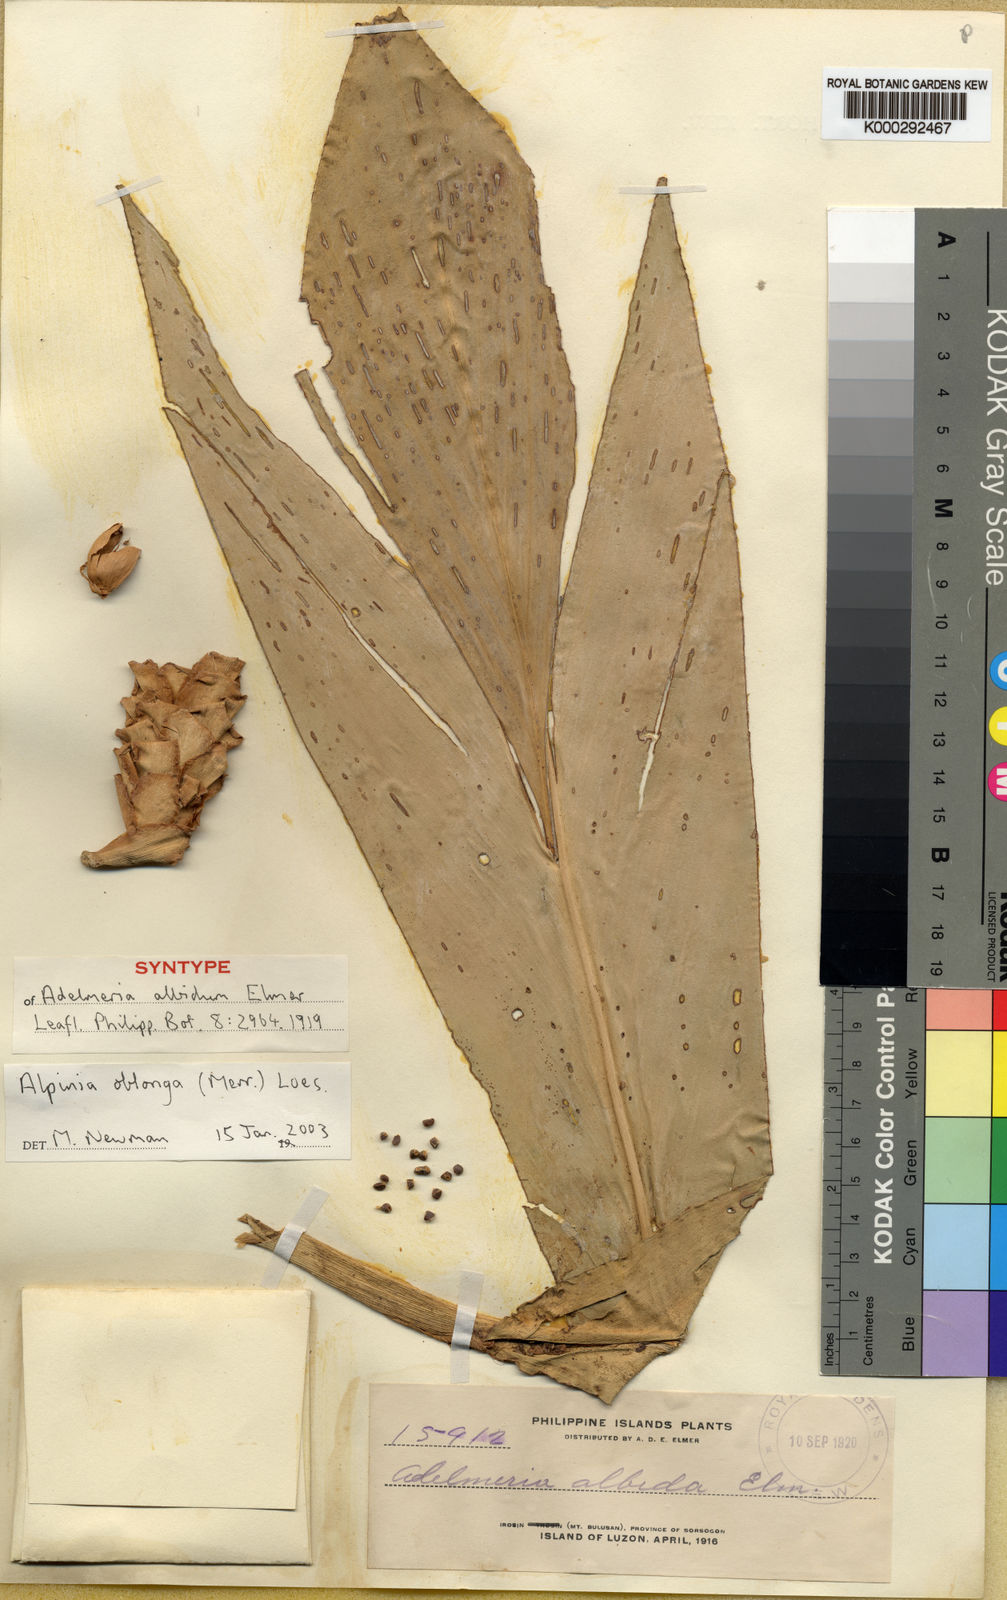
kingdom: Plantae
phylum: Tracheophyta
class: Liliopsida
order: Zingiberales
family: Zingiberaceae
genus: Adelmeria
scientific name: Adelmeria oblonga
